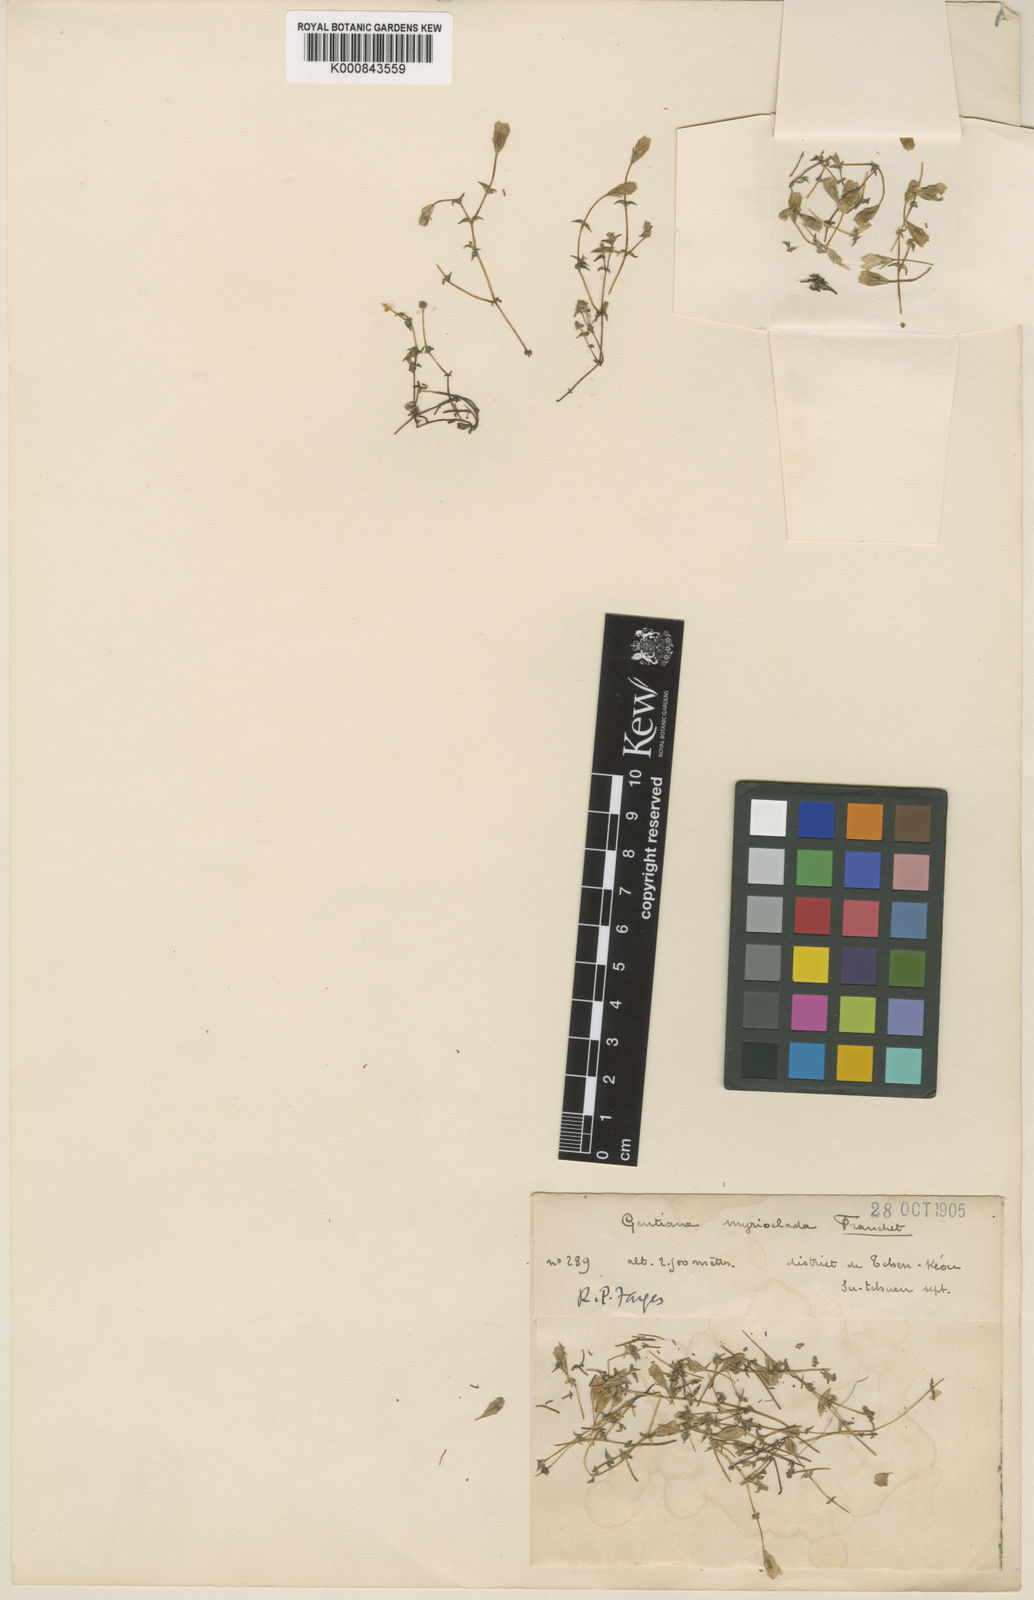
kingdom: Plantae
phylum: Tracheophyta
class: Magnoliopsida
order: Gentianales
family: Gentianaceae
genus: Gentiana
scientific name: Gentiana myrioclada
